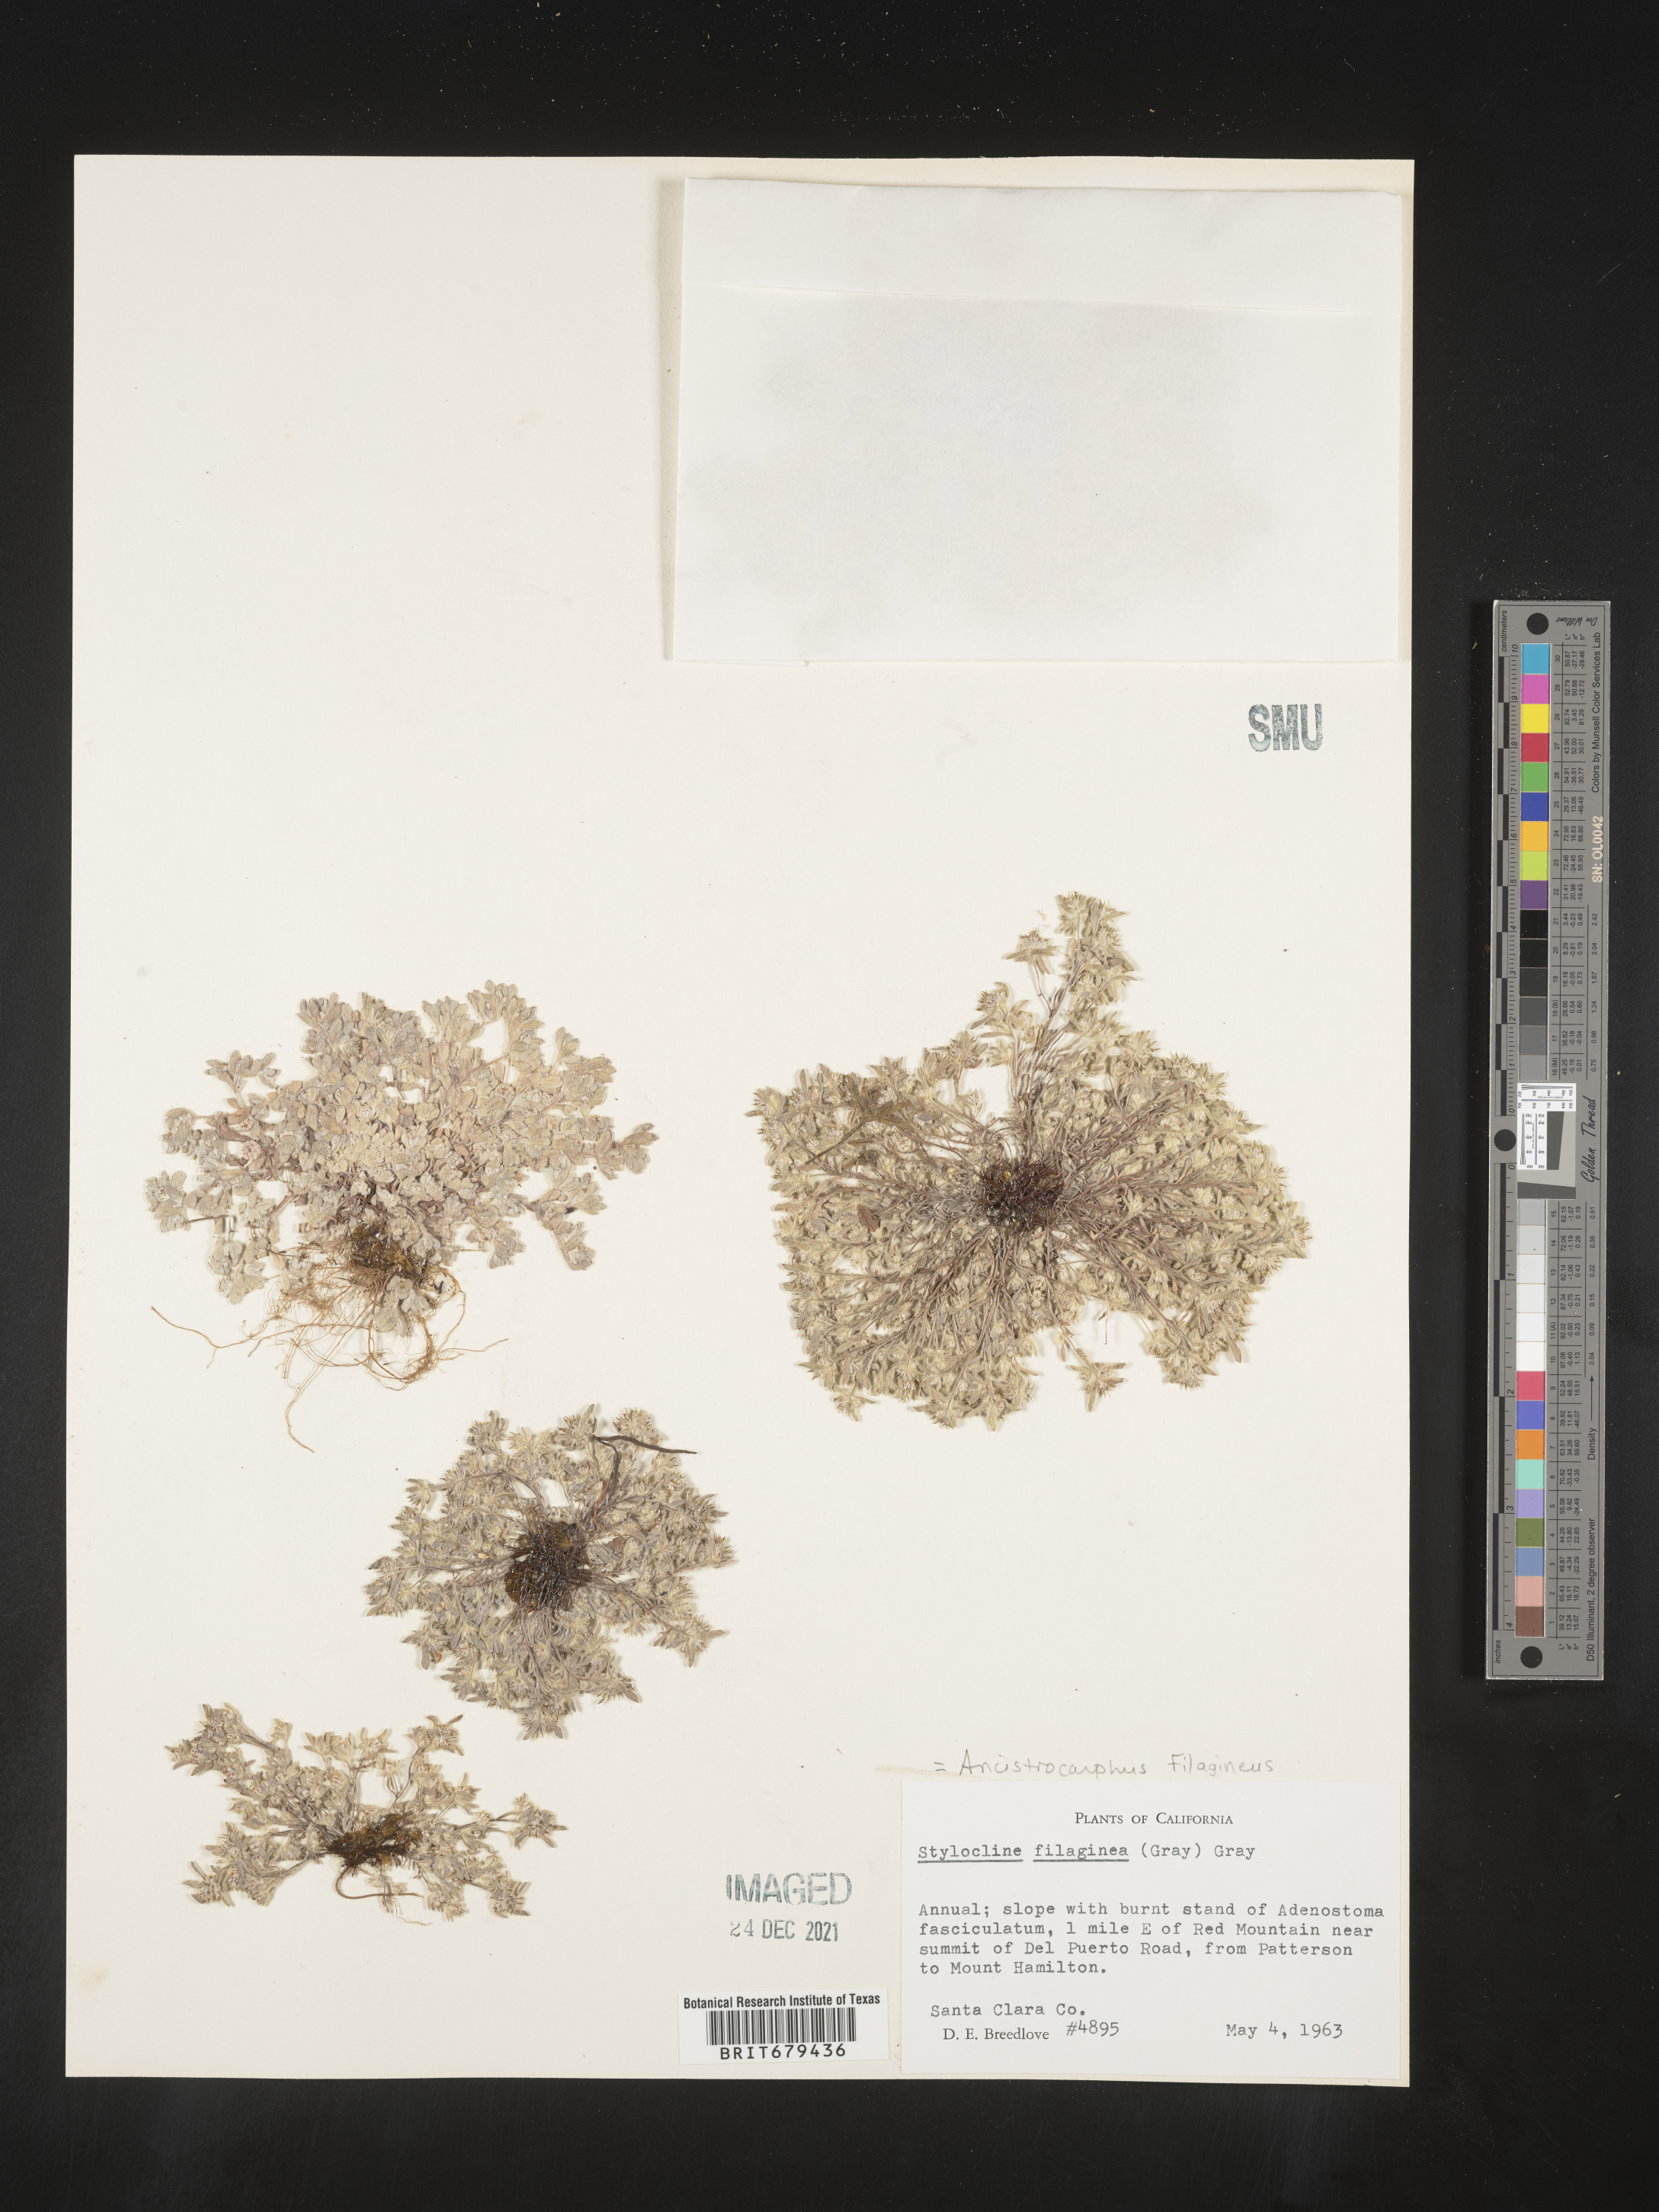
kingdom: Plantae
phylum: Tracheophyta
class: Magnoliopsida
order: Asterales
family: Asteraceae
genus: Ancistrocarphus
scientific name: Ancistrocarphus filagineus
